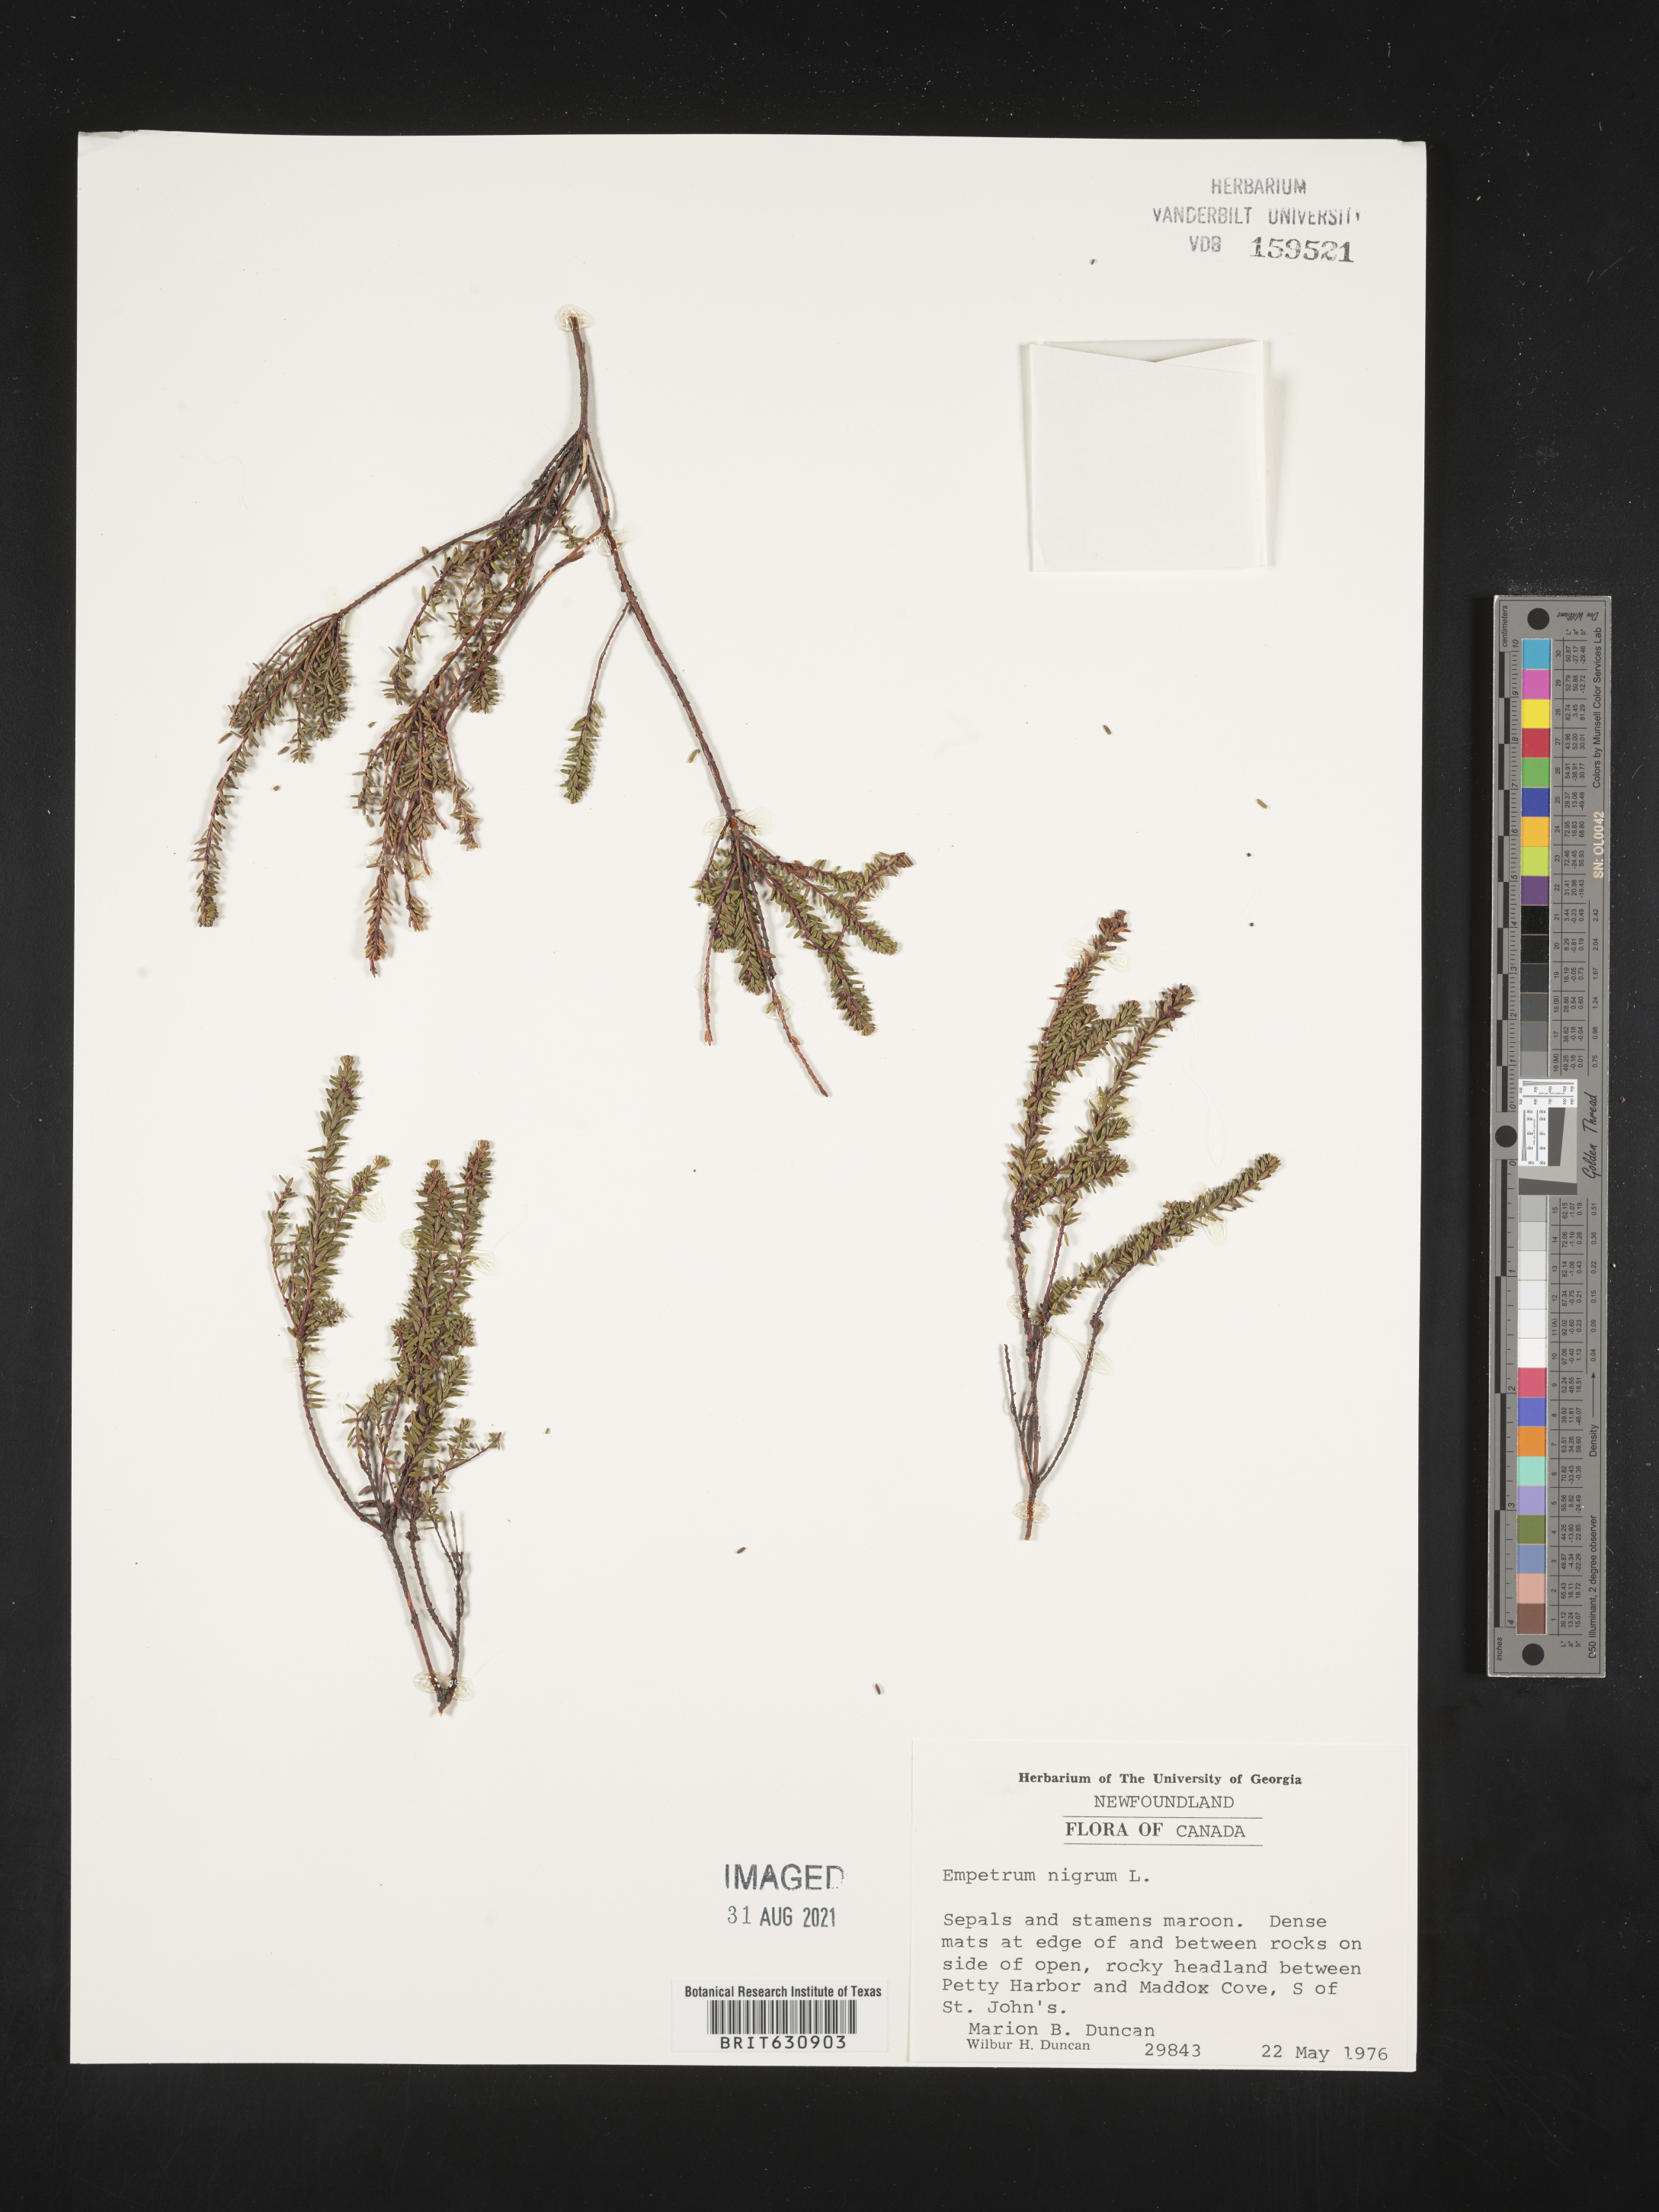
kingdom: Plantae
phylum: Tracheophyta
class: Magnoliopsida
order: Ericales
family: Ericaceae
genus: Empetrum
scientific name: Empetrum
